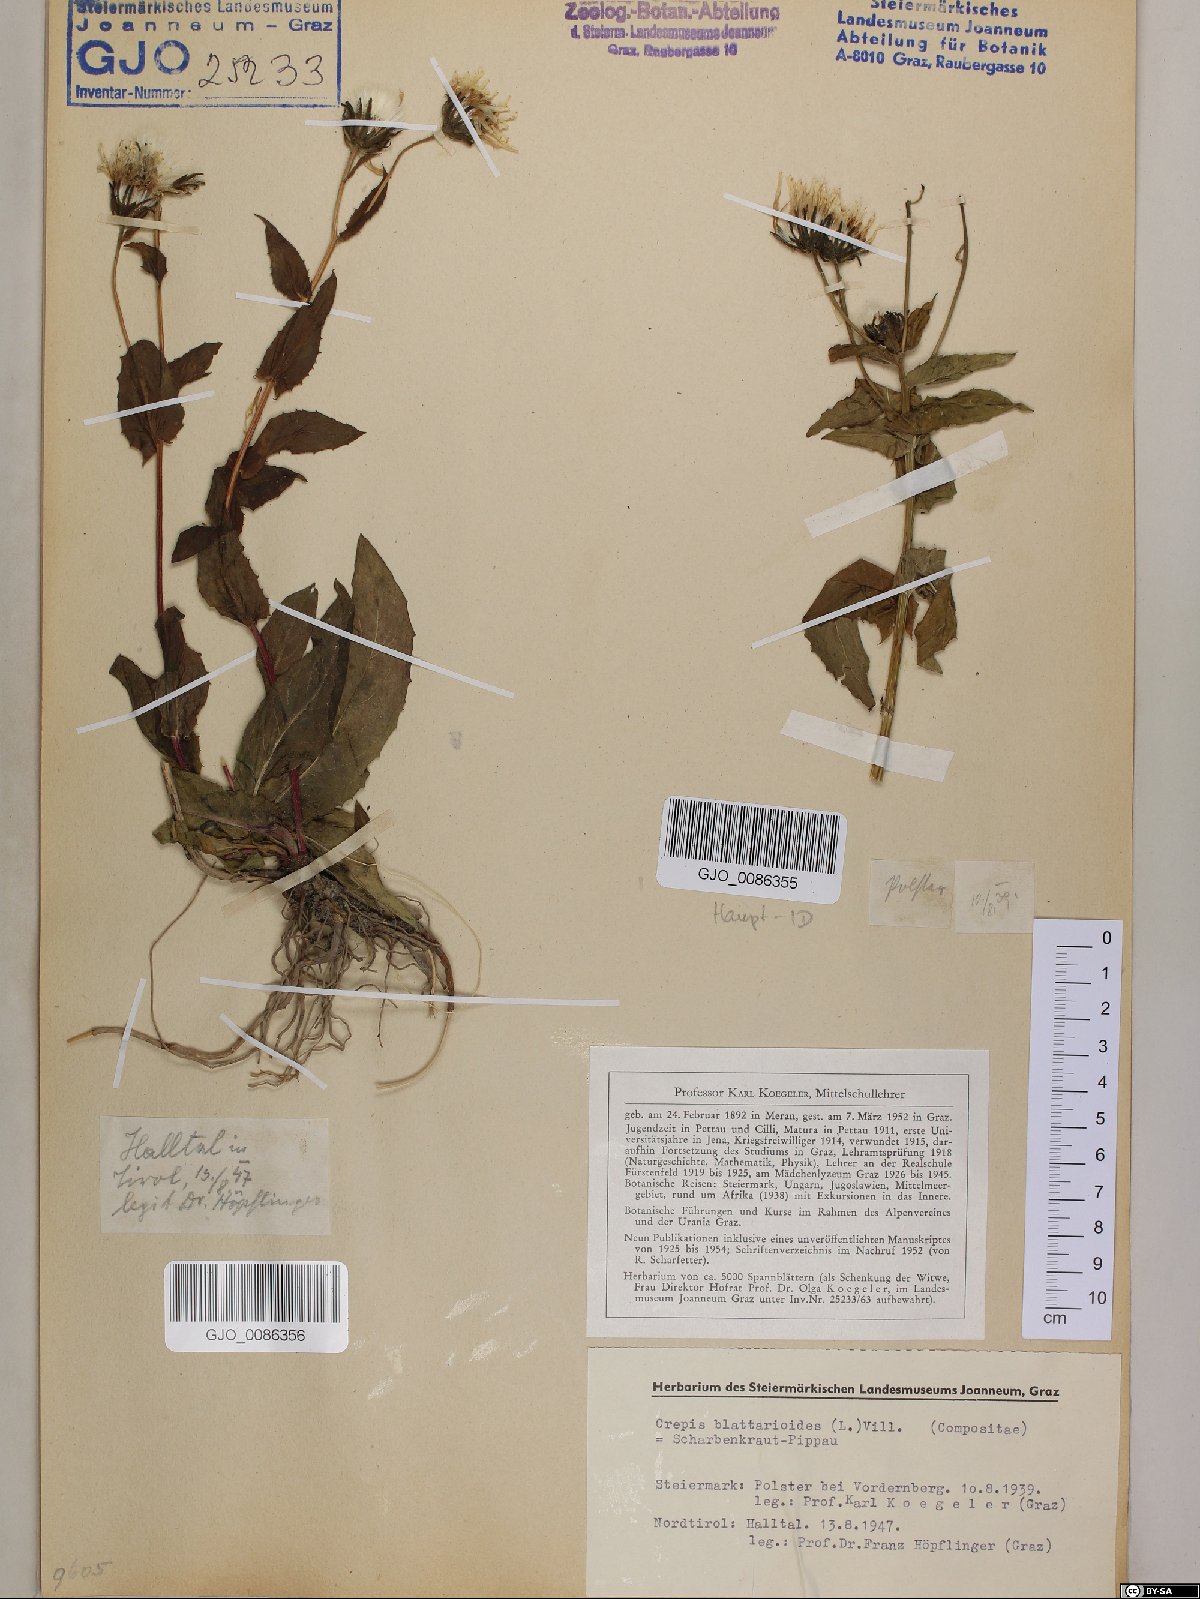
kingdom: Plantae
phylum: Tracheophyta
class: Magnoliopsida
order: Asterales
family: Asteraceae
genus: Crepis
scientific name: Crepis blattarioides
